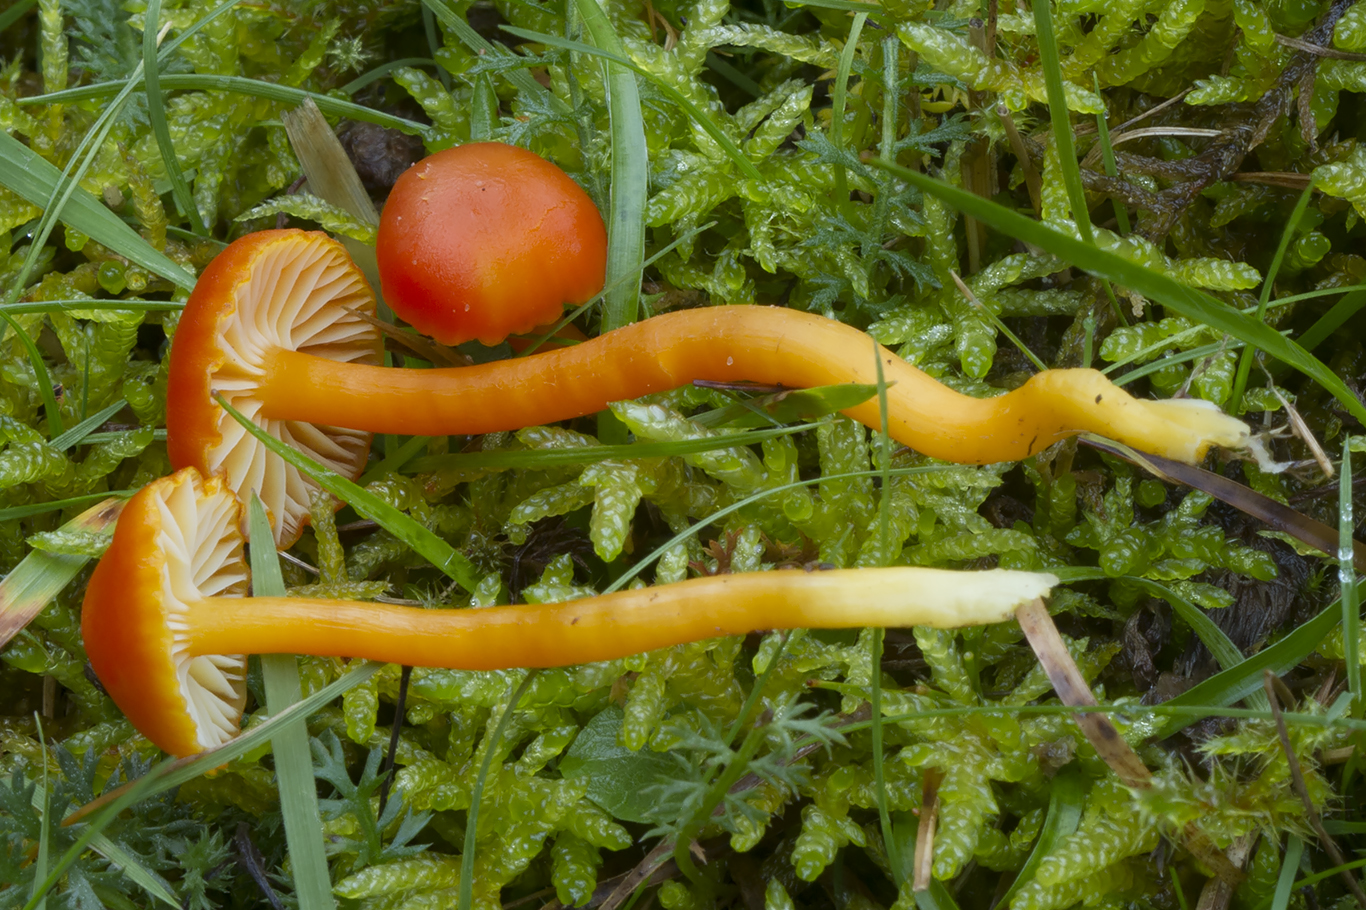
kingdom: Fungi
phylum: Basidiomycota
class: Agaricomycetes
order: Agaricales
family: Hygrophoraceae
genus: Hygrocybe
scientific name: Hygrocybe reidii
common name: honning-vokshat
